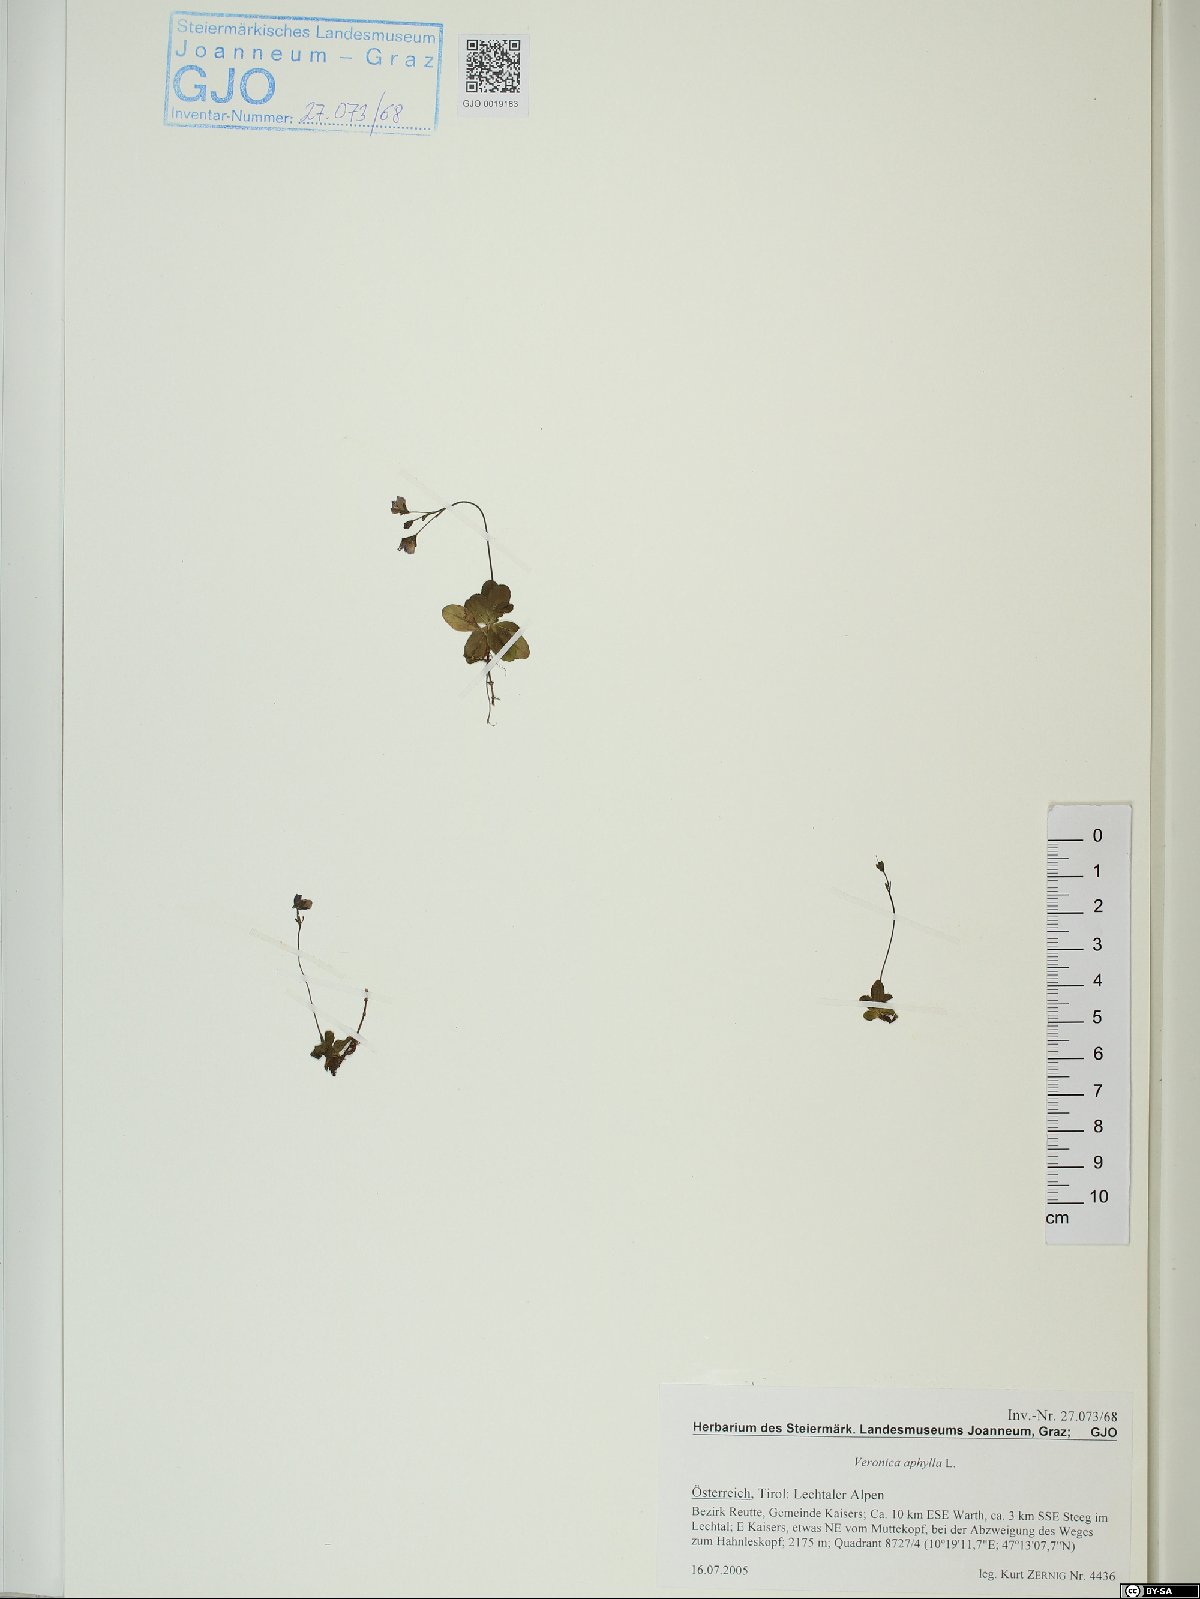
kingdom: Plantae
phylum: Tracheophyta
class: Magnoliopsida
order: Lamiales
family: Plantaginaceae
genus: Veronica
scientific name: Veronica aphylla
